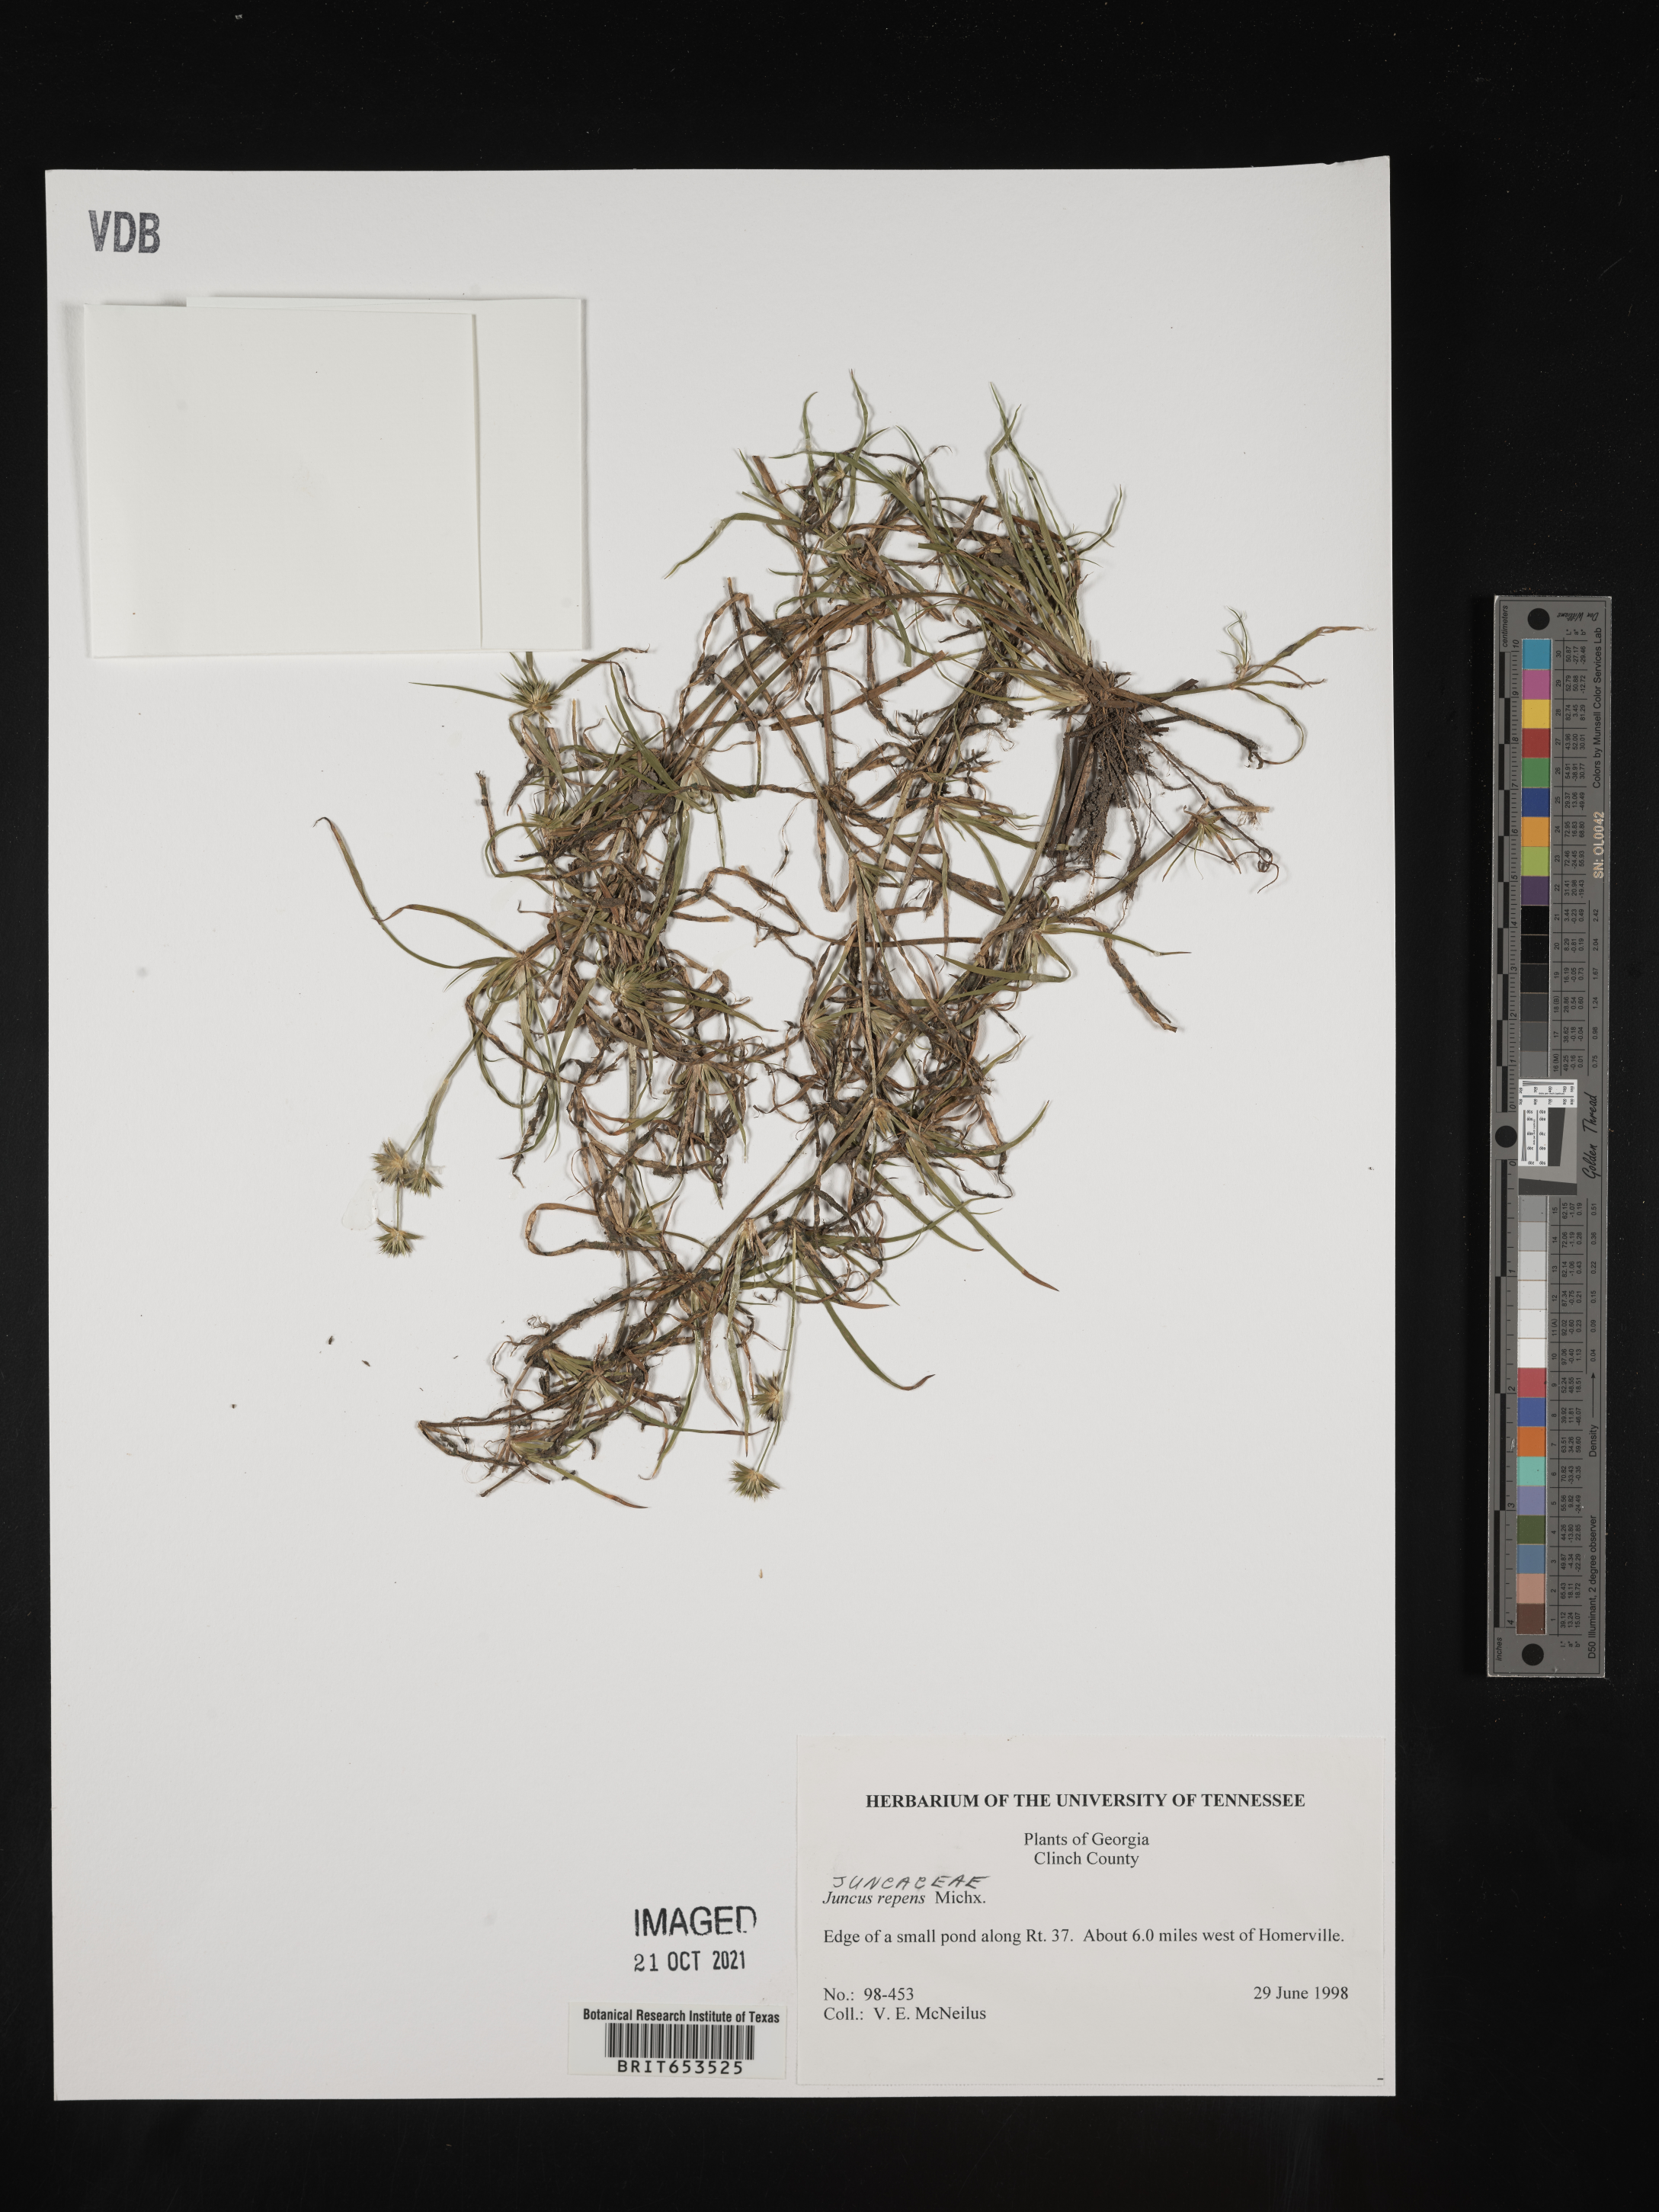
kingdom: Plantae
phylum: Tracheophyta
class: Liliopsida
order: Poales
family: Juncaceae
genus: Juncus
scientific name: Juncus repens
